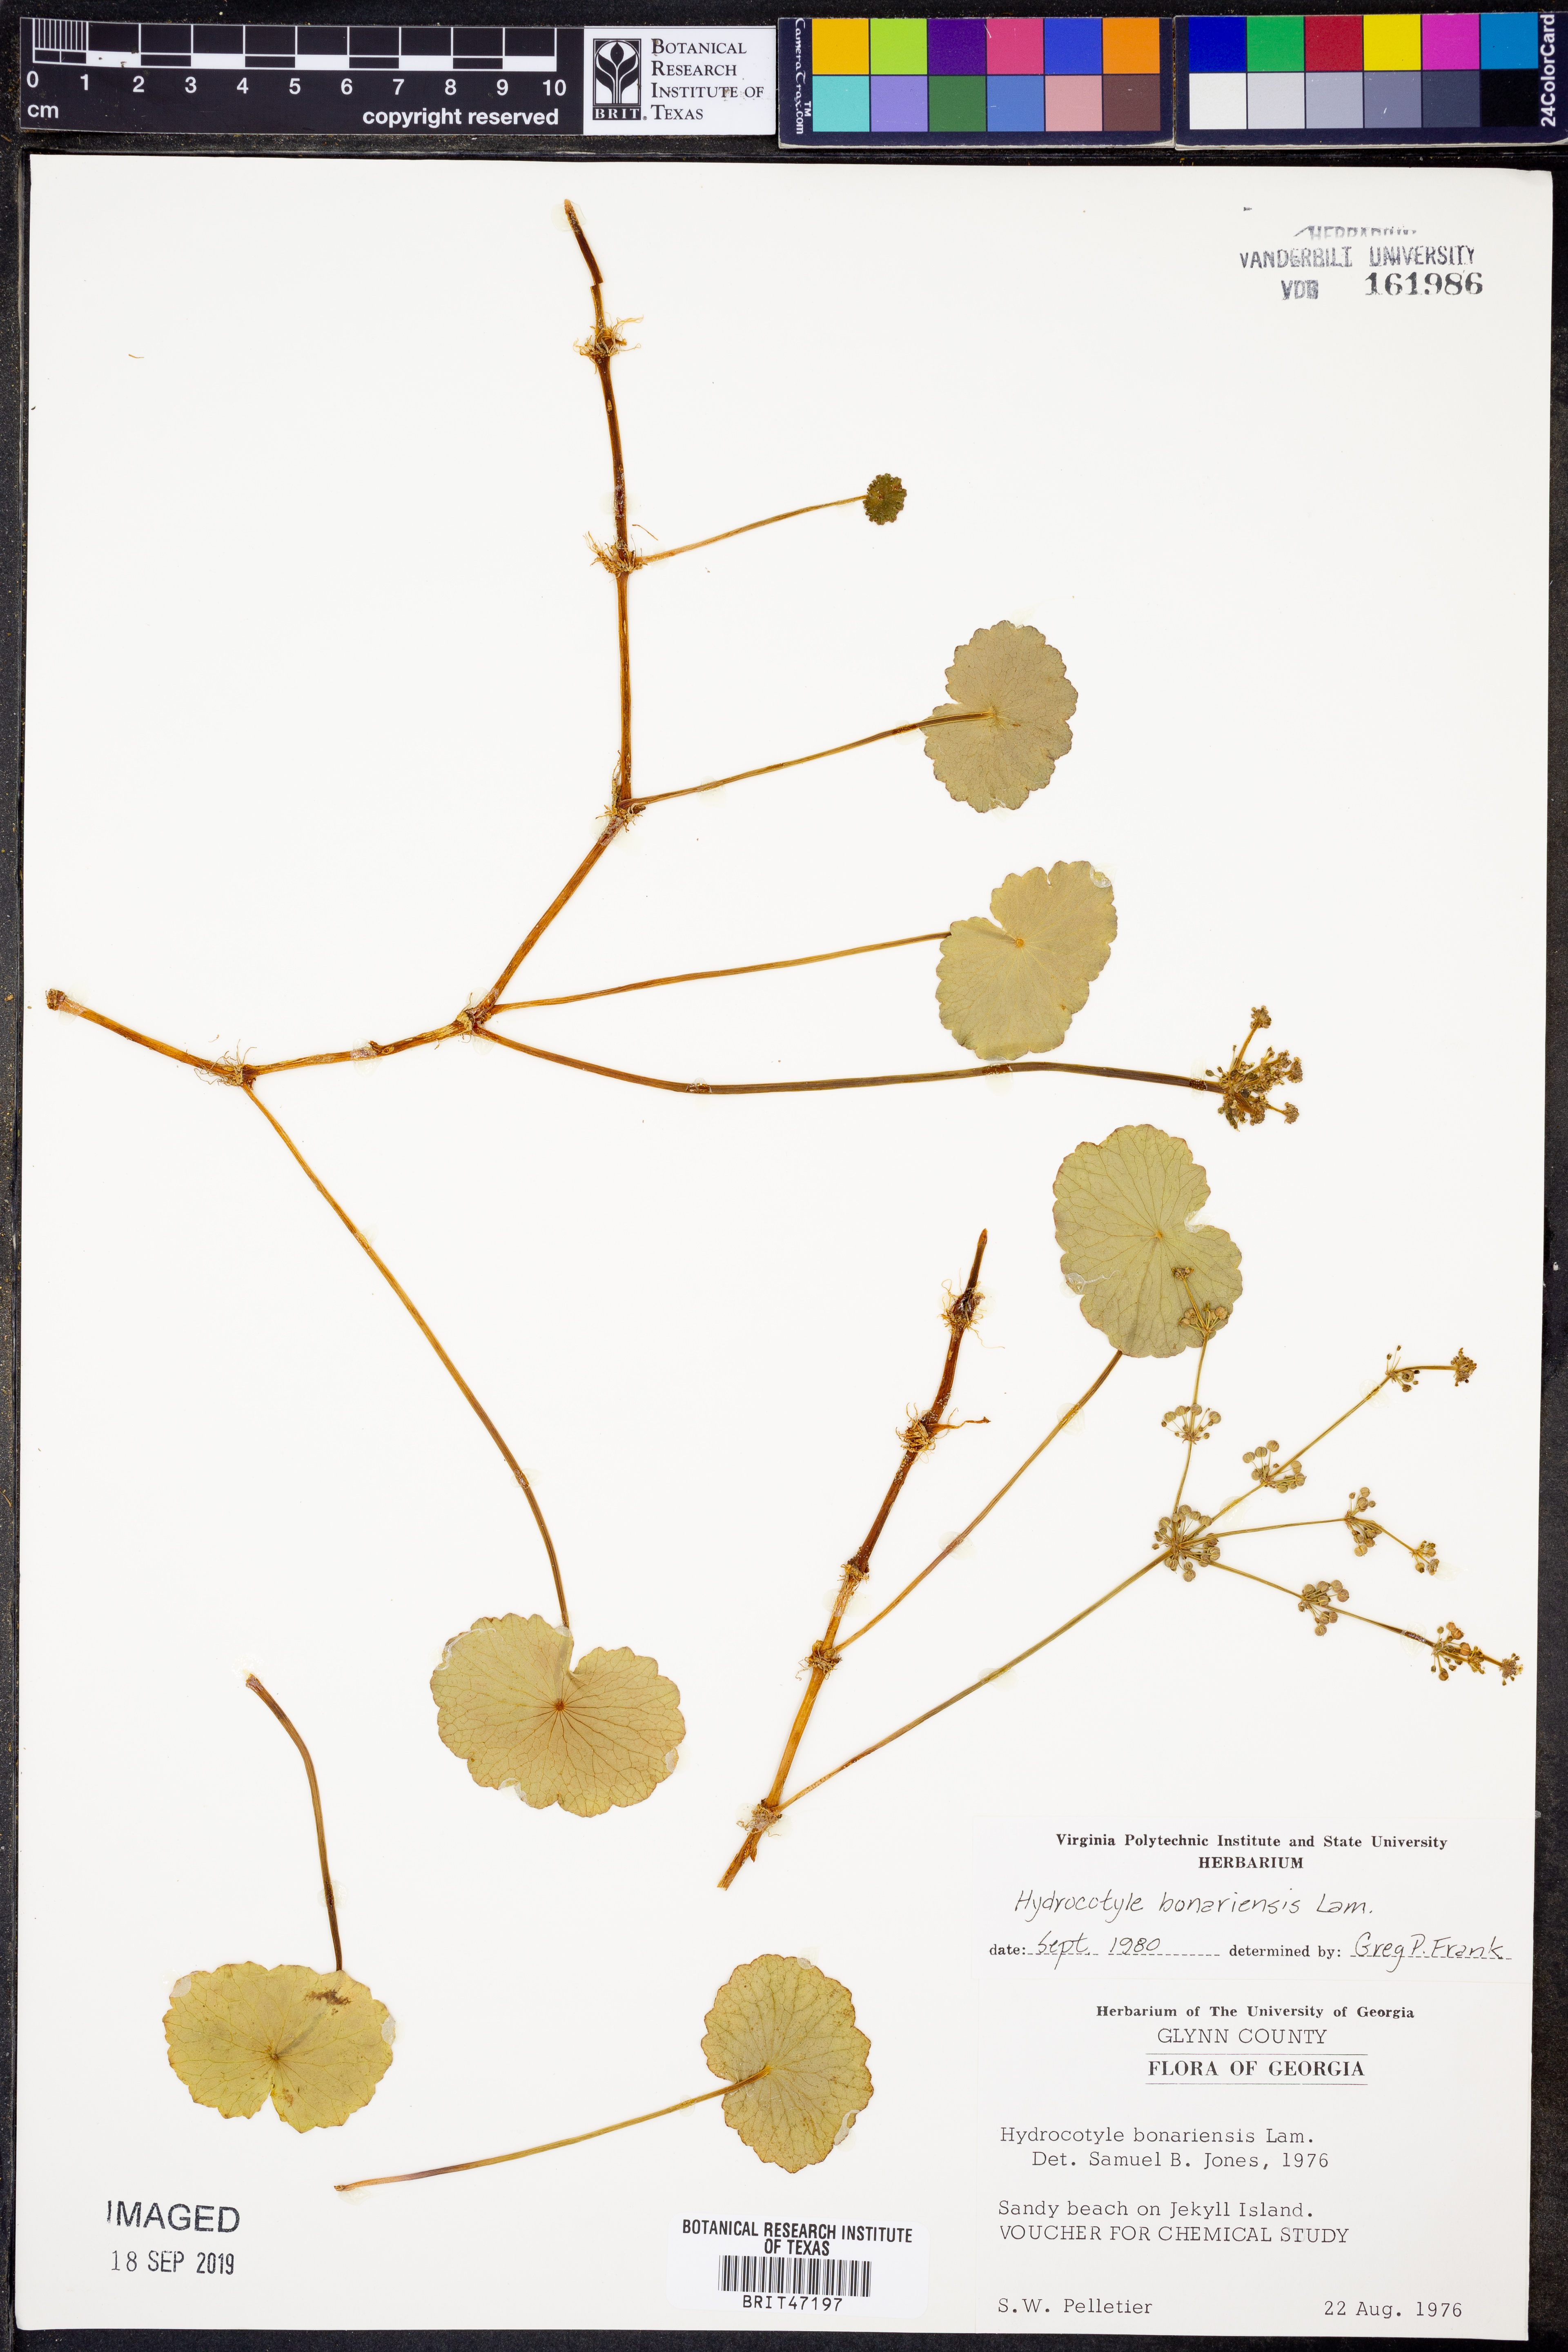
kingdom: Plantae
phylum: Tracheophyta
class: Magnoliopsida
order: Apiales
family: Araliaceae
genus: Hydrocotyle
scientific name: Hydrocotyle bonariensis
